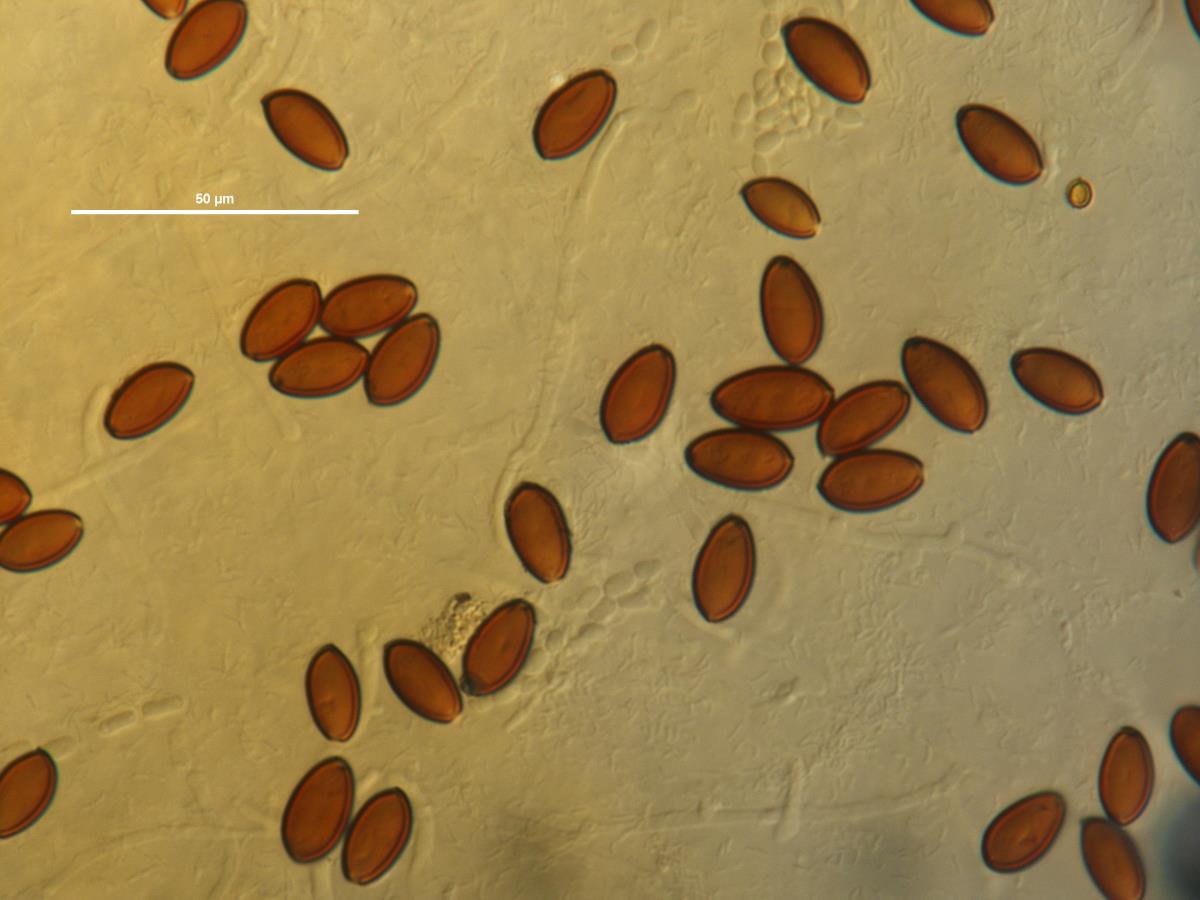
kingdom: Fungi
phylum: Basidiomycota
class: Agaricomycetes
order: Agaricales
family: Strophariaceae
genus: Deconica
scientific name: Deconica merdaria
